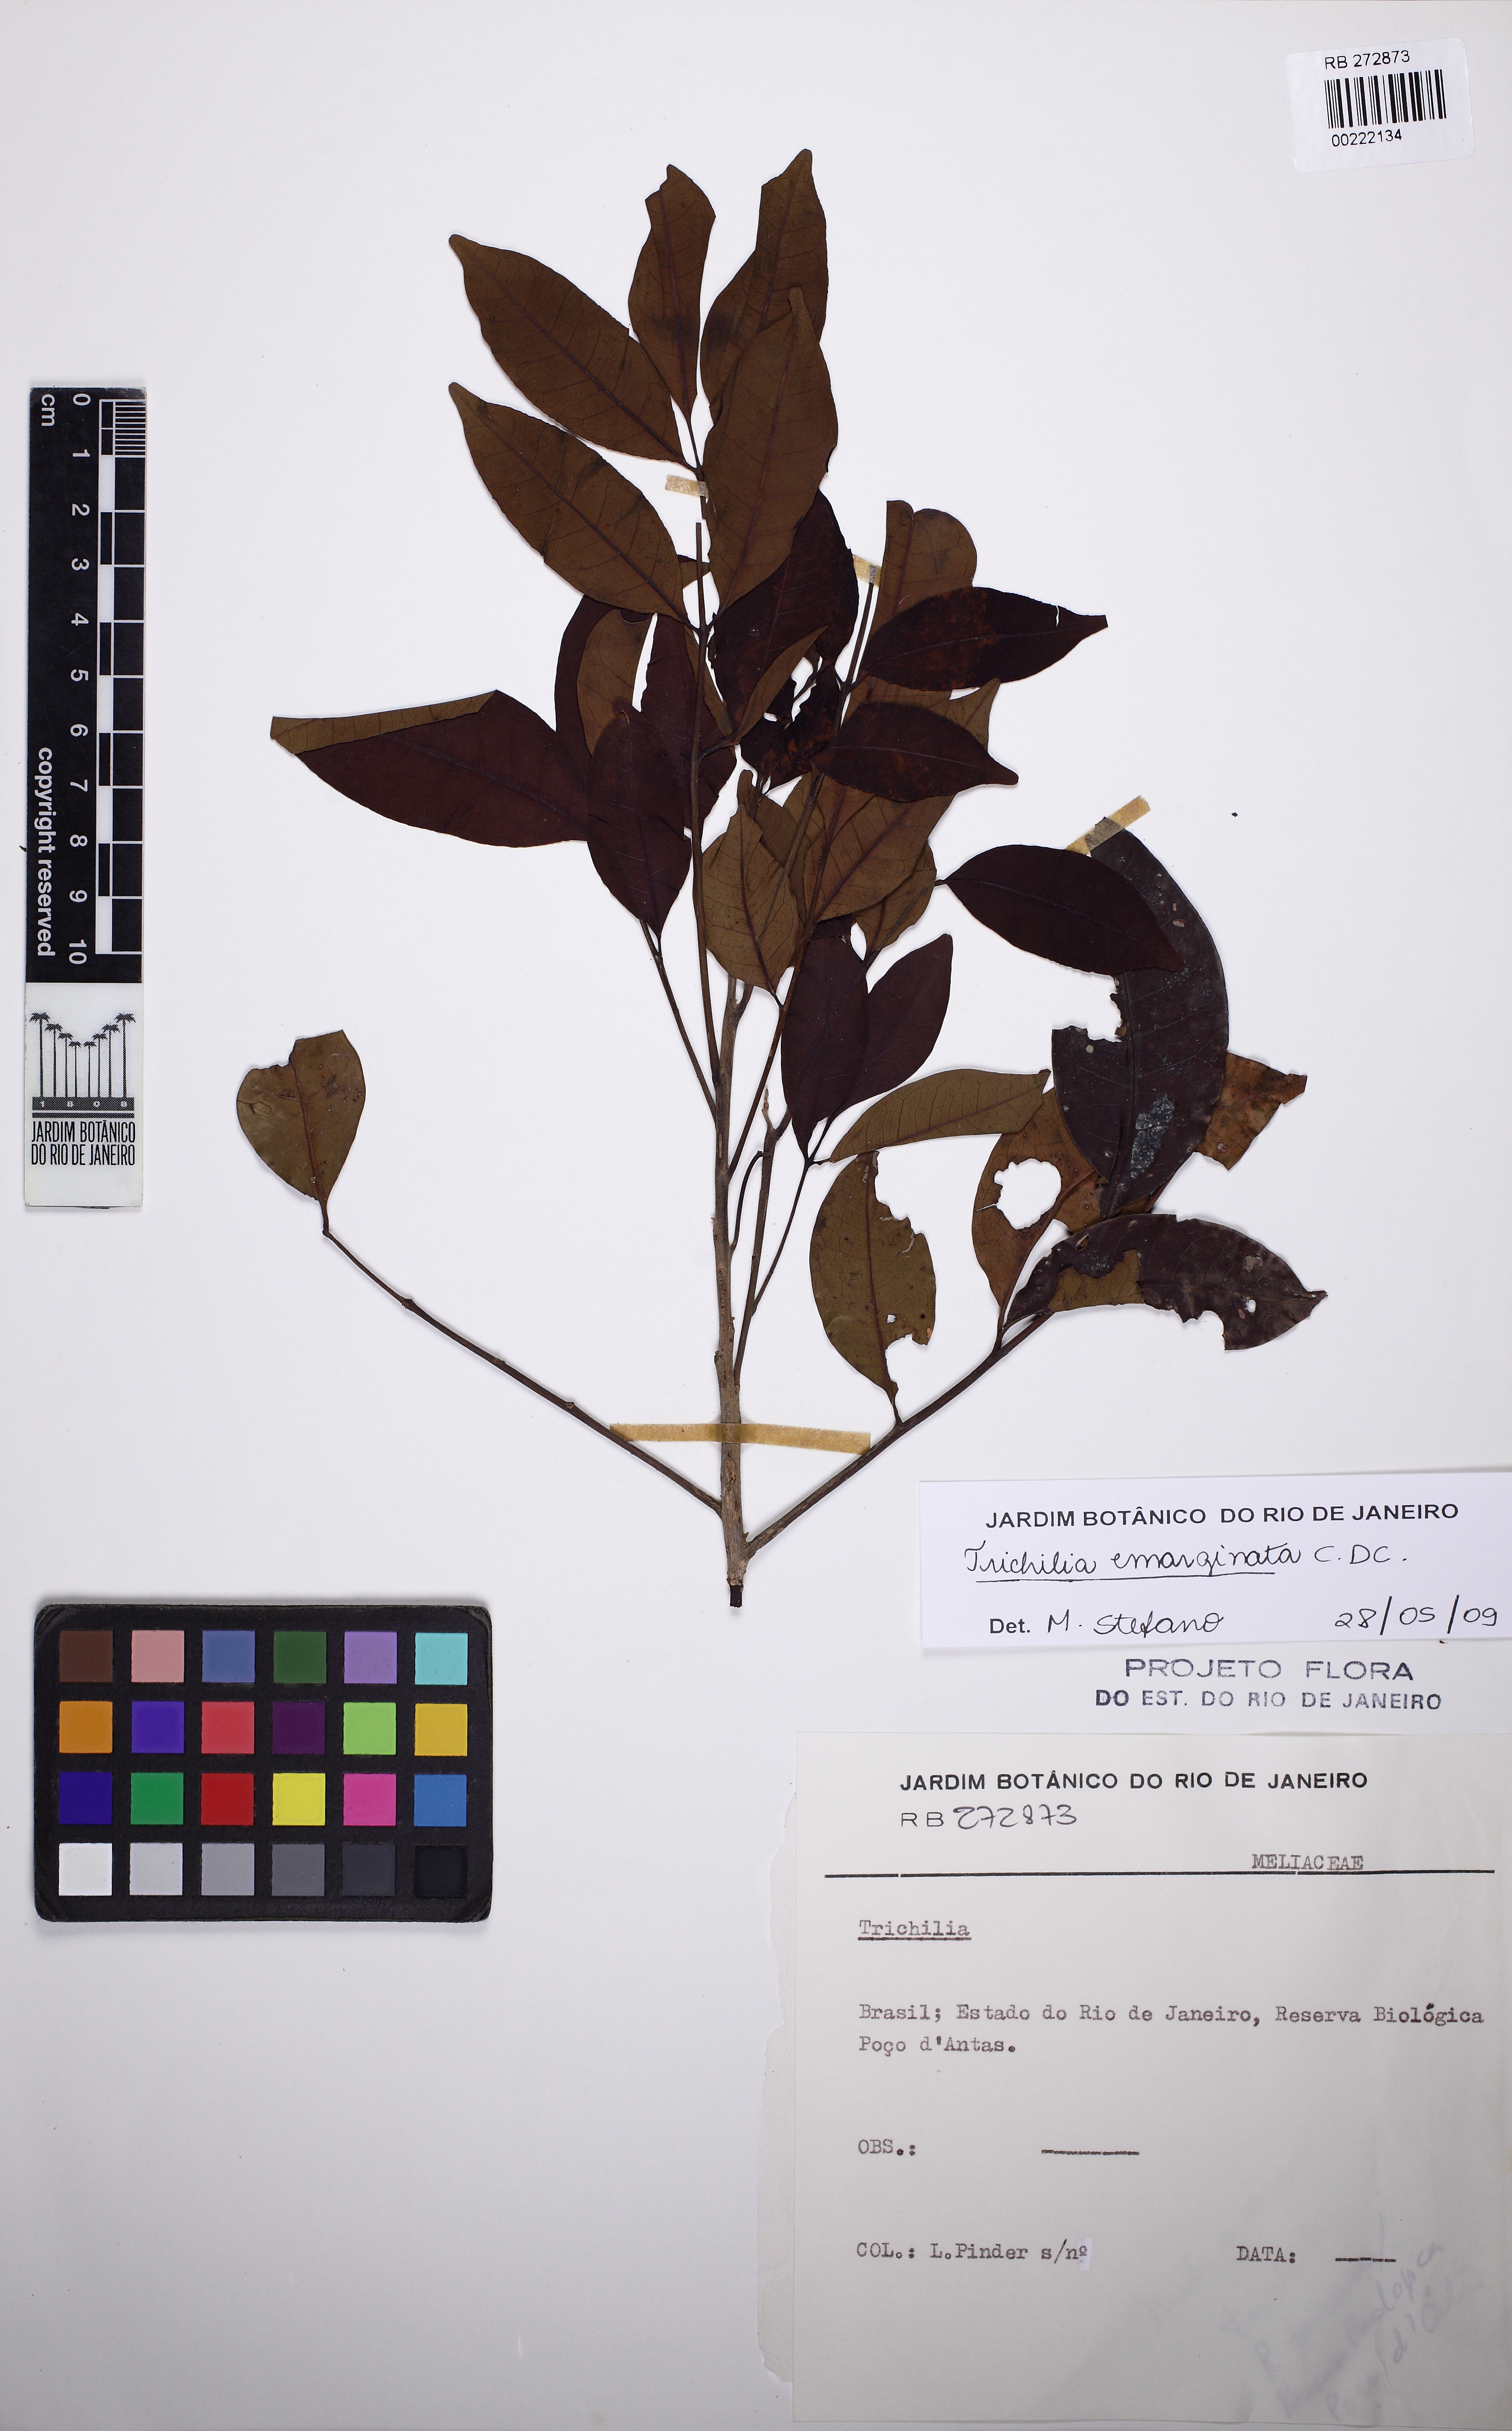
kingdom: Plantae
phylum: Tracheophyta
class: Magnoliopsida
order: Sapindales
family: Meliaceae
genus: Trichilia
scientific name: Trichilia emarginata
